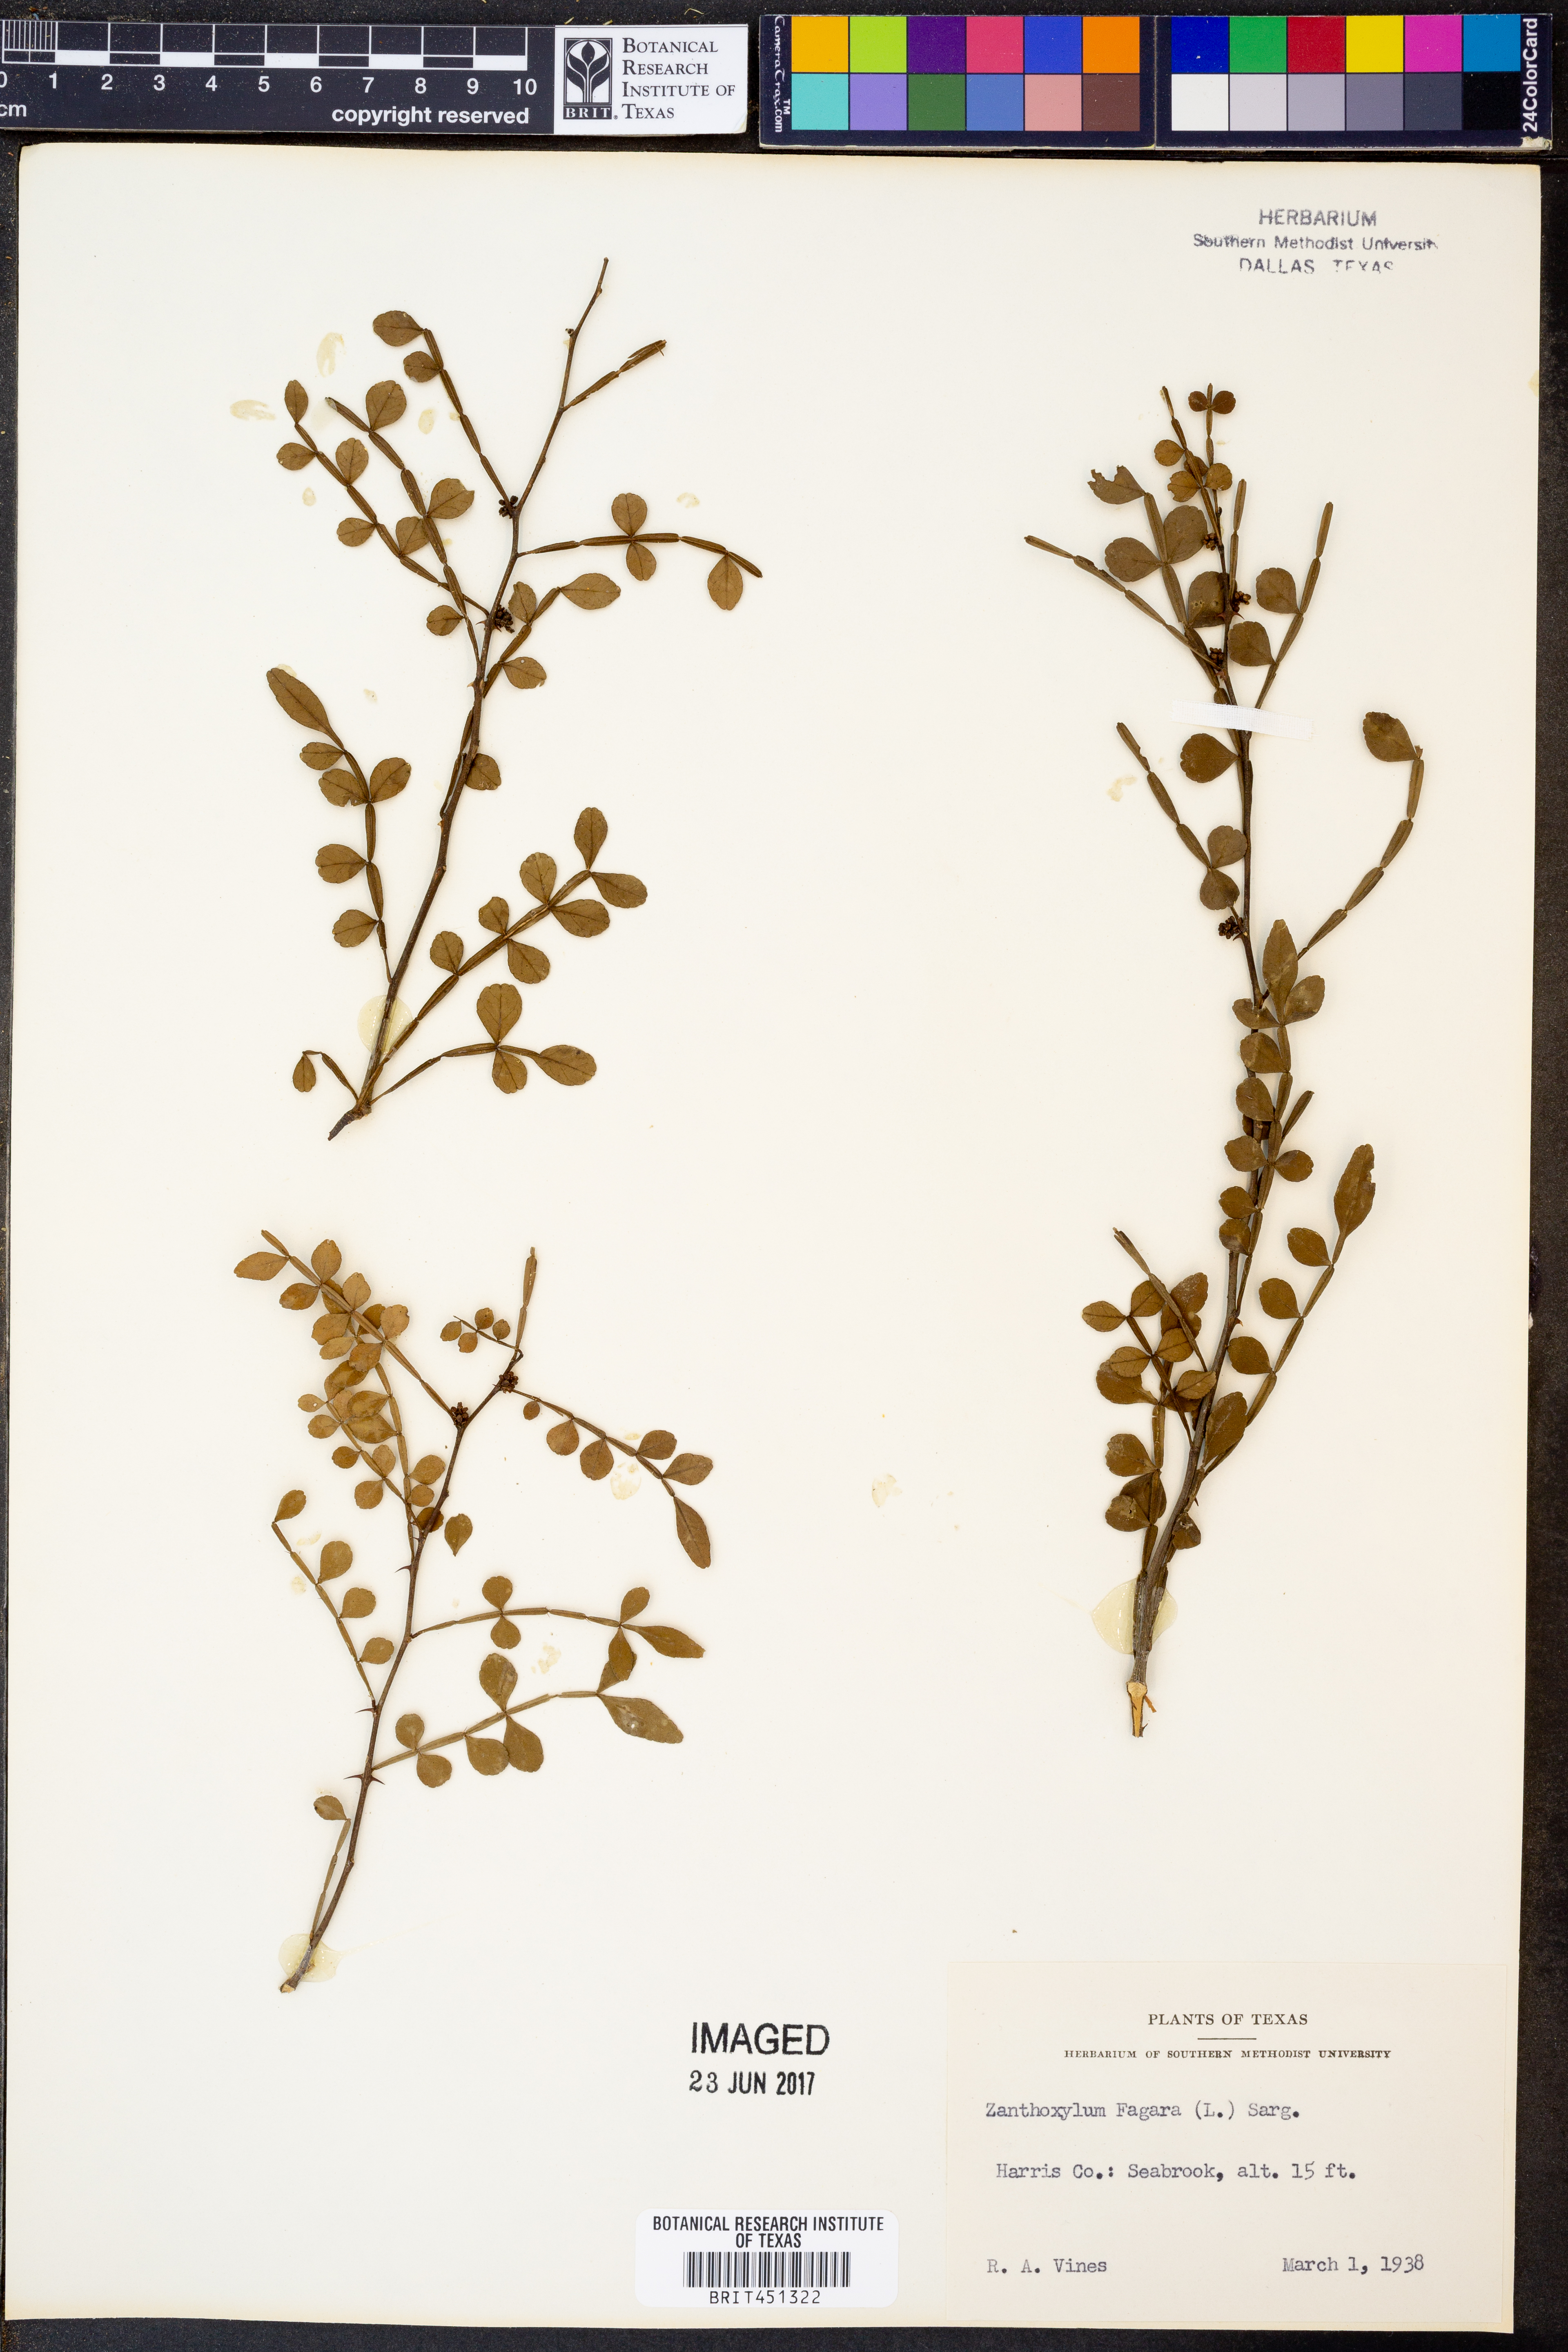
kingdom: Plantae
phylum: Tracheophyta
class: Magnoliopsida
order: Sapindales
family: Rutaceae
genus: Zanthoxylum
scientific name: Zanthoxylum fagara
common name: Lime prickly-ash
